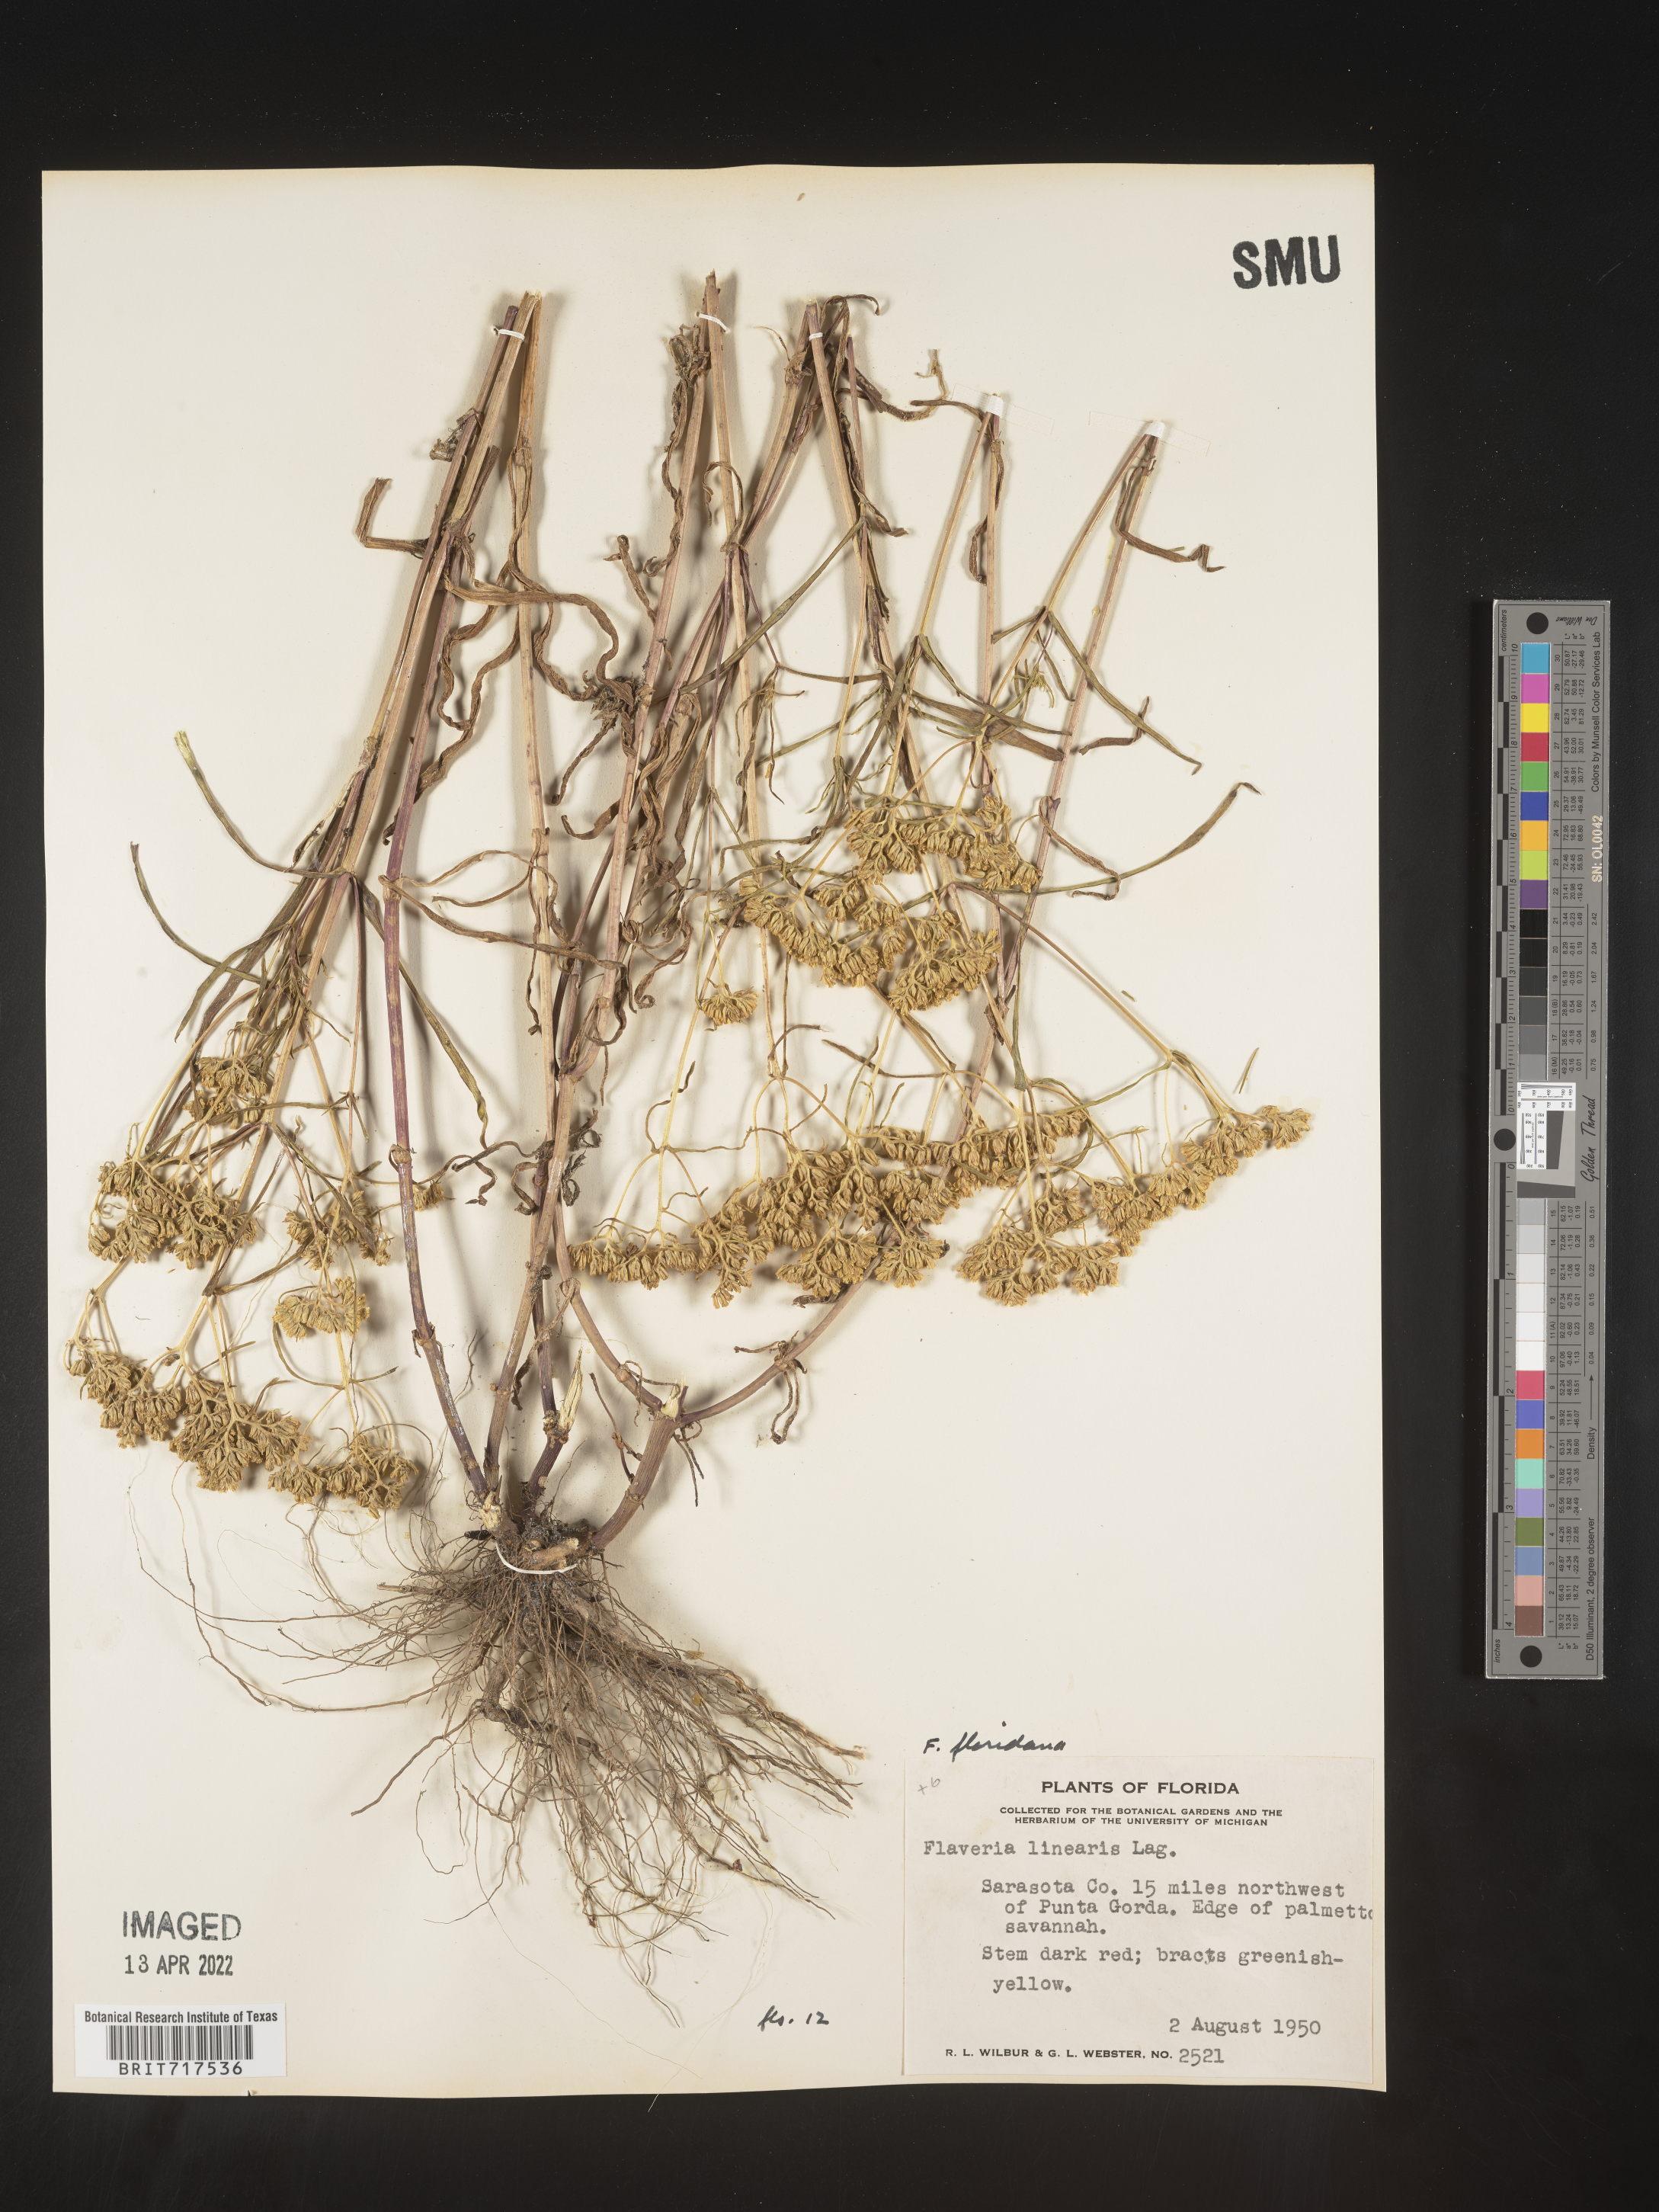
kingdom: Plantae
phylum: Tracheophyta
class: Magnoliopsida
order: Asterales
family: Asteraceae
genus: Flaveria
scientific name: Flaveria linearis
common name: Yellowtop
